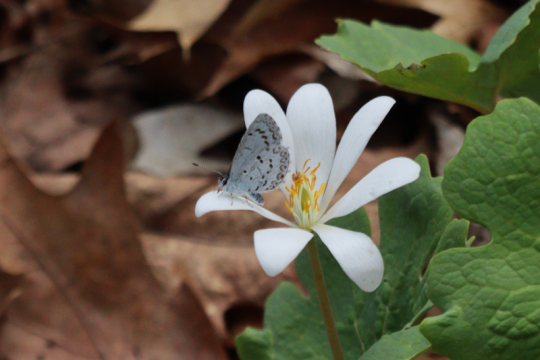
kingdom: Animalia
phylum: Arthropoda
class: Insecta
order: Lepidoptera
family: Lycaenidae
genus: Celastrina
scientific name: Celastrina lucia
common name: Northern Spring Azure
